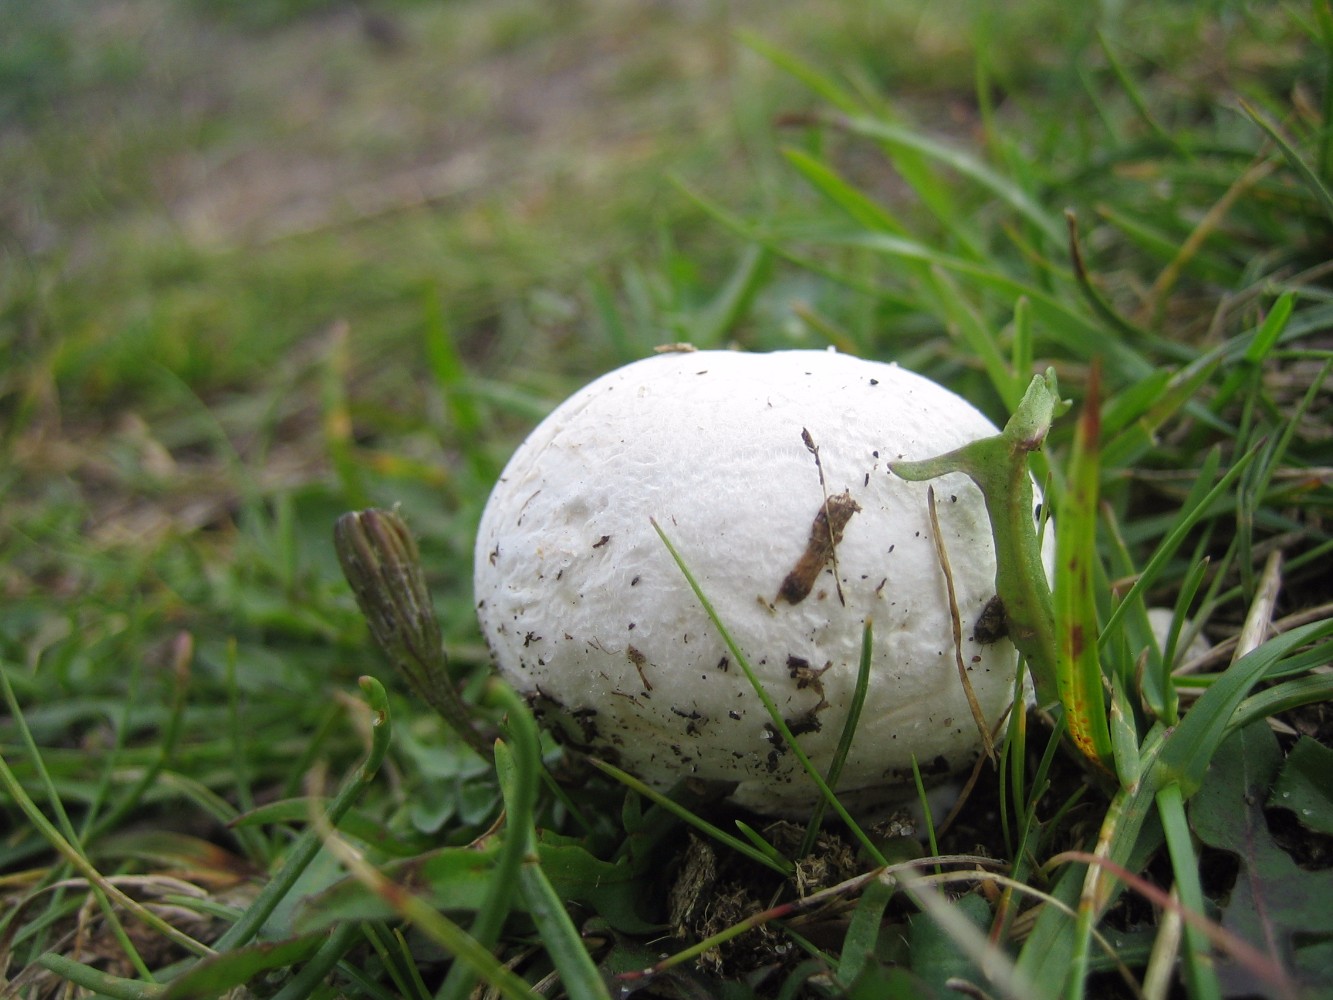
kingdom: Fungi
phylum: Basidiomycota
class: Agaricomycetes
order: Agaricales
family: Lycoperdaceae
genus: Bovista
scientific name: Bovista
